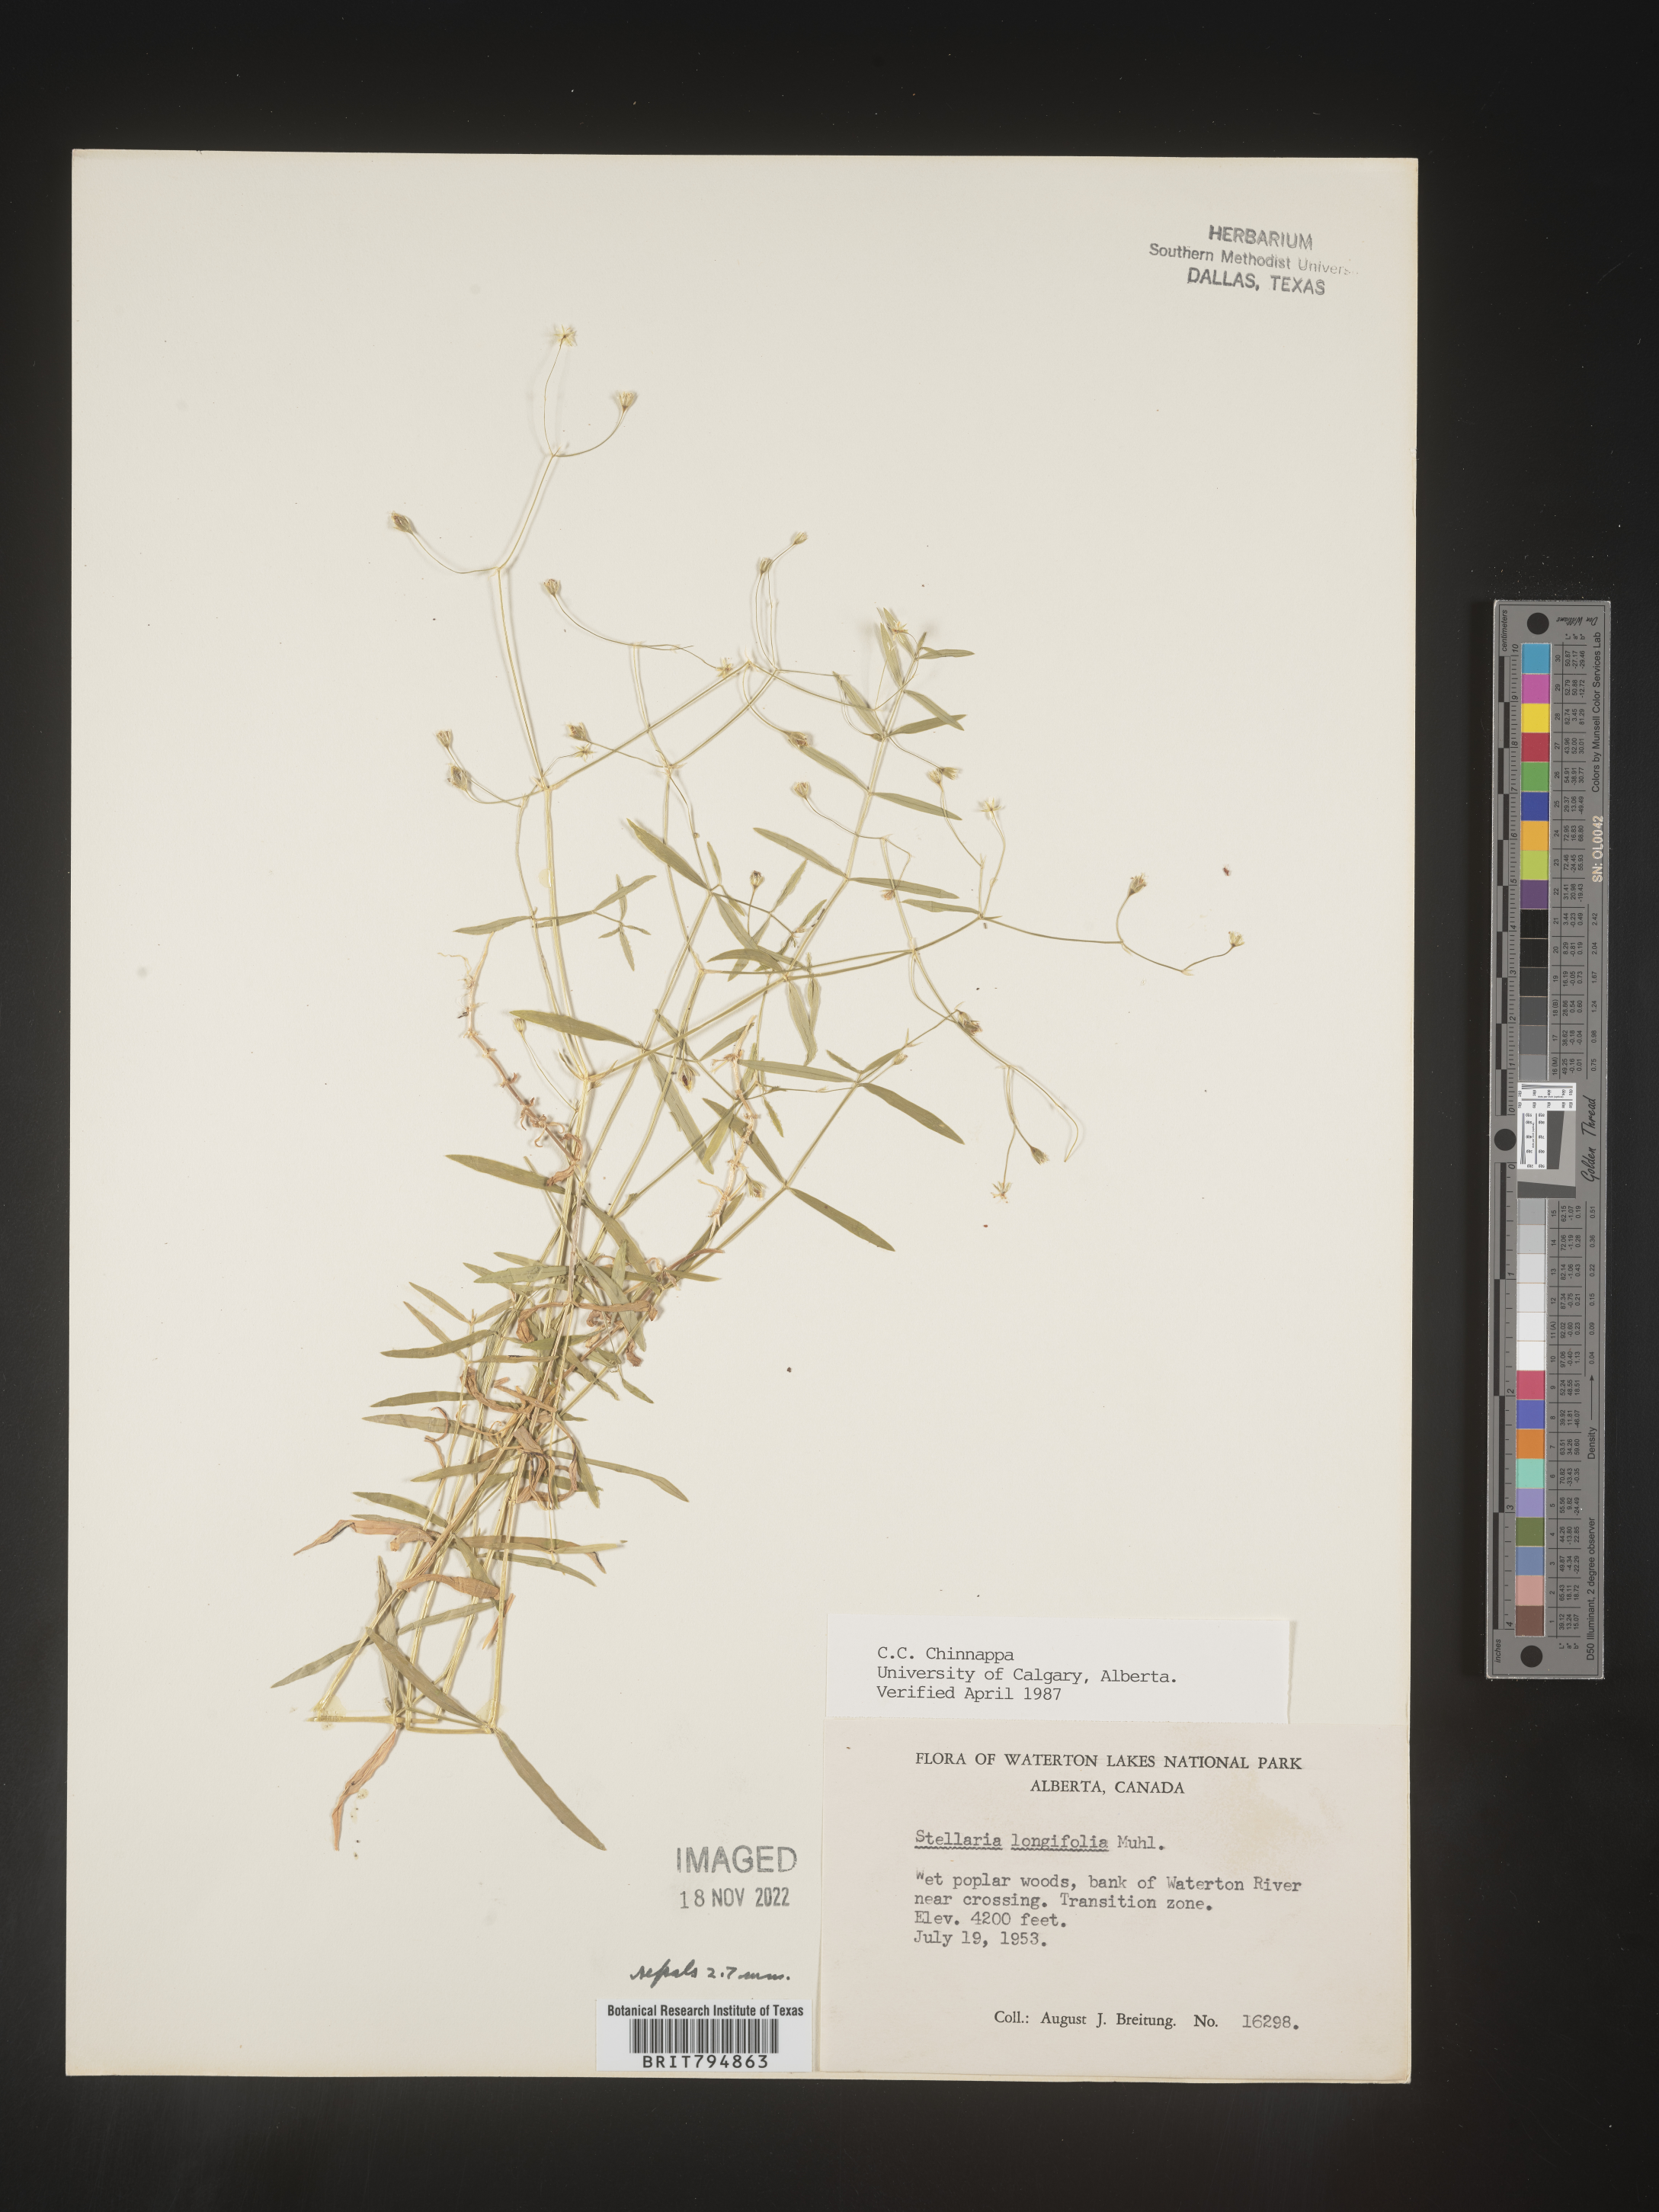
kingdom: Plantae
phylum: Tracheophyta
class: Magnoliopsida
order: Caryophyllales
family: Caryophyllaceae
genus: Stellaria
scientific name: Stellaria longifolia
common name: Long-leaved chickweed
